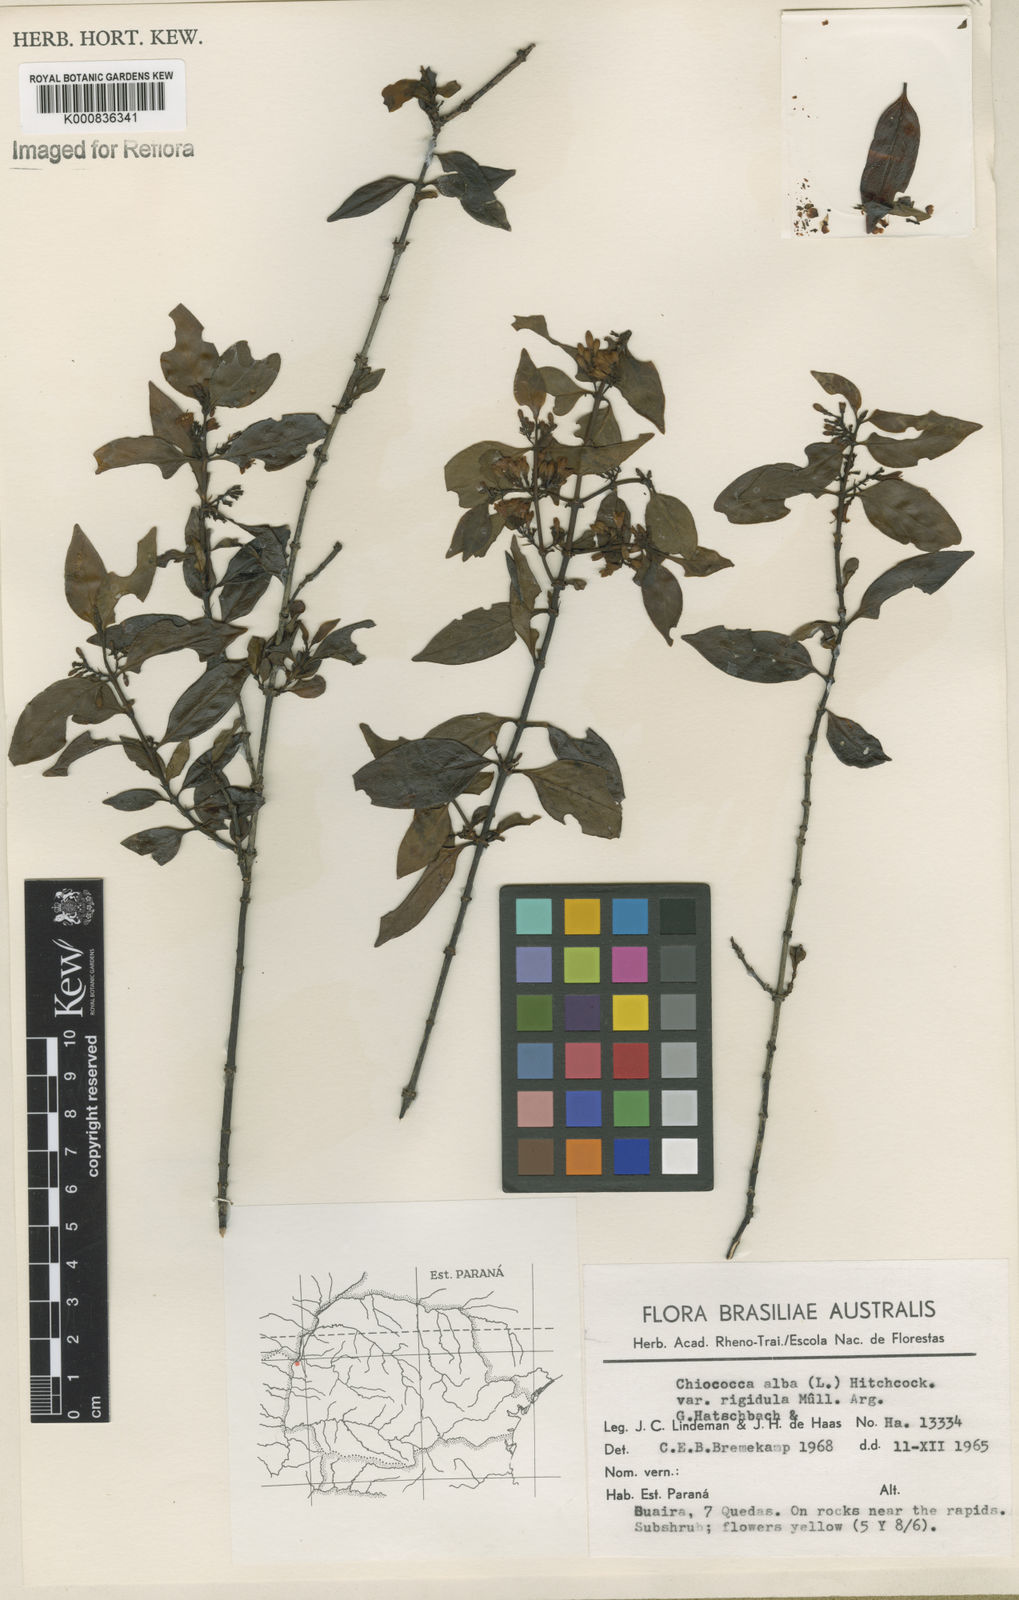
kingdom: Plantae
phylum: Tracheophyta
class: Magnoliopsida
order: Gentianales
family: Rubiaceae
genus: Chiococca
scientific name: Chiococca alba
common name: Snowberry
